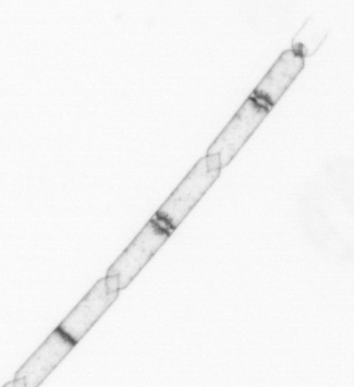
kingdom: Chromista
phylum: Ochrophyta
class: Bacillariophyceae
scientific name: Bacillariophyceae
